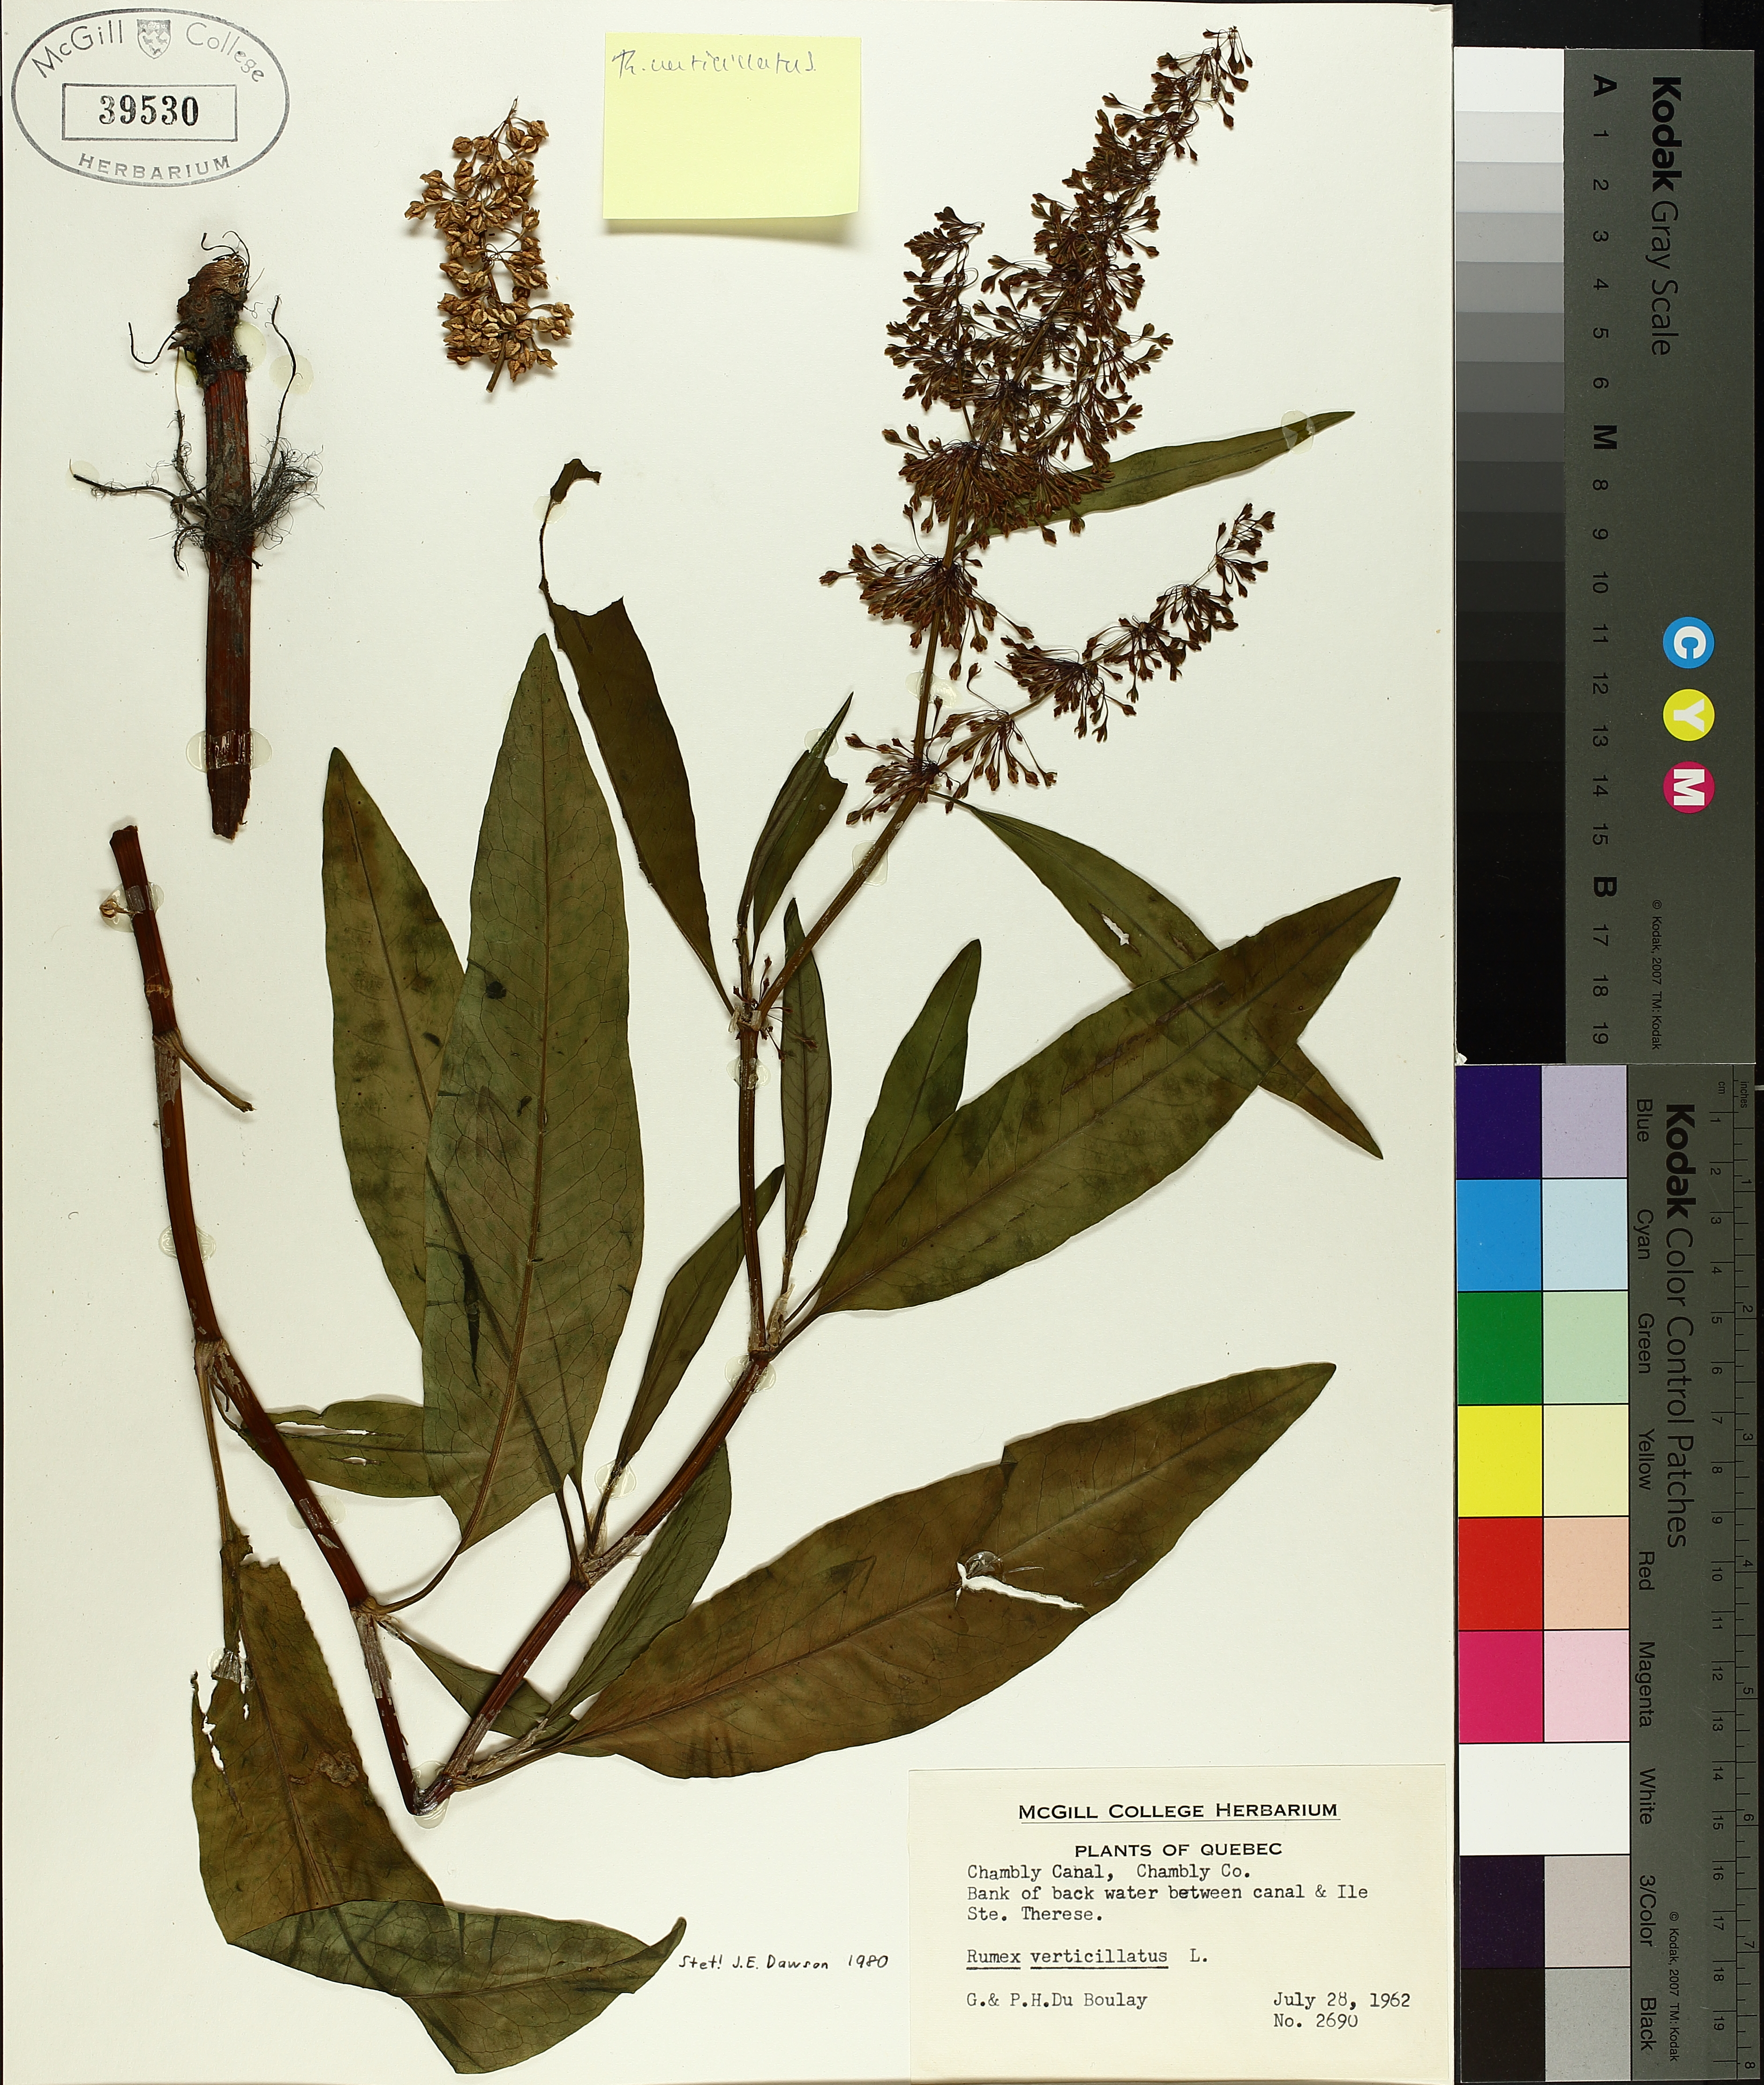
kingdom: Plantae
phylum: Tracheophyta
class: Magnoliopsida
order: Caryophyllales
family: Polygonaceae
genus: Rumex
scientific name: Rumex verticillatus
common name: Swamp dock
